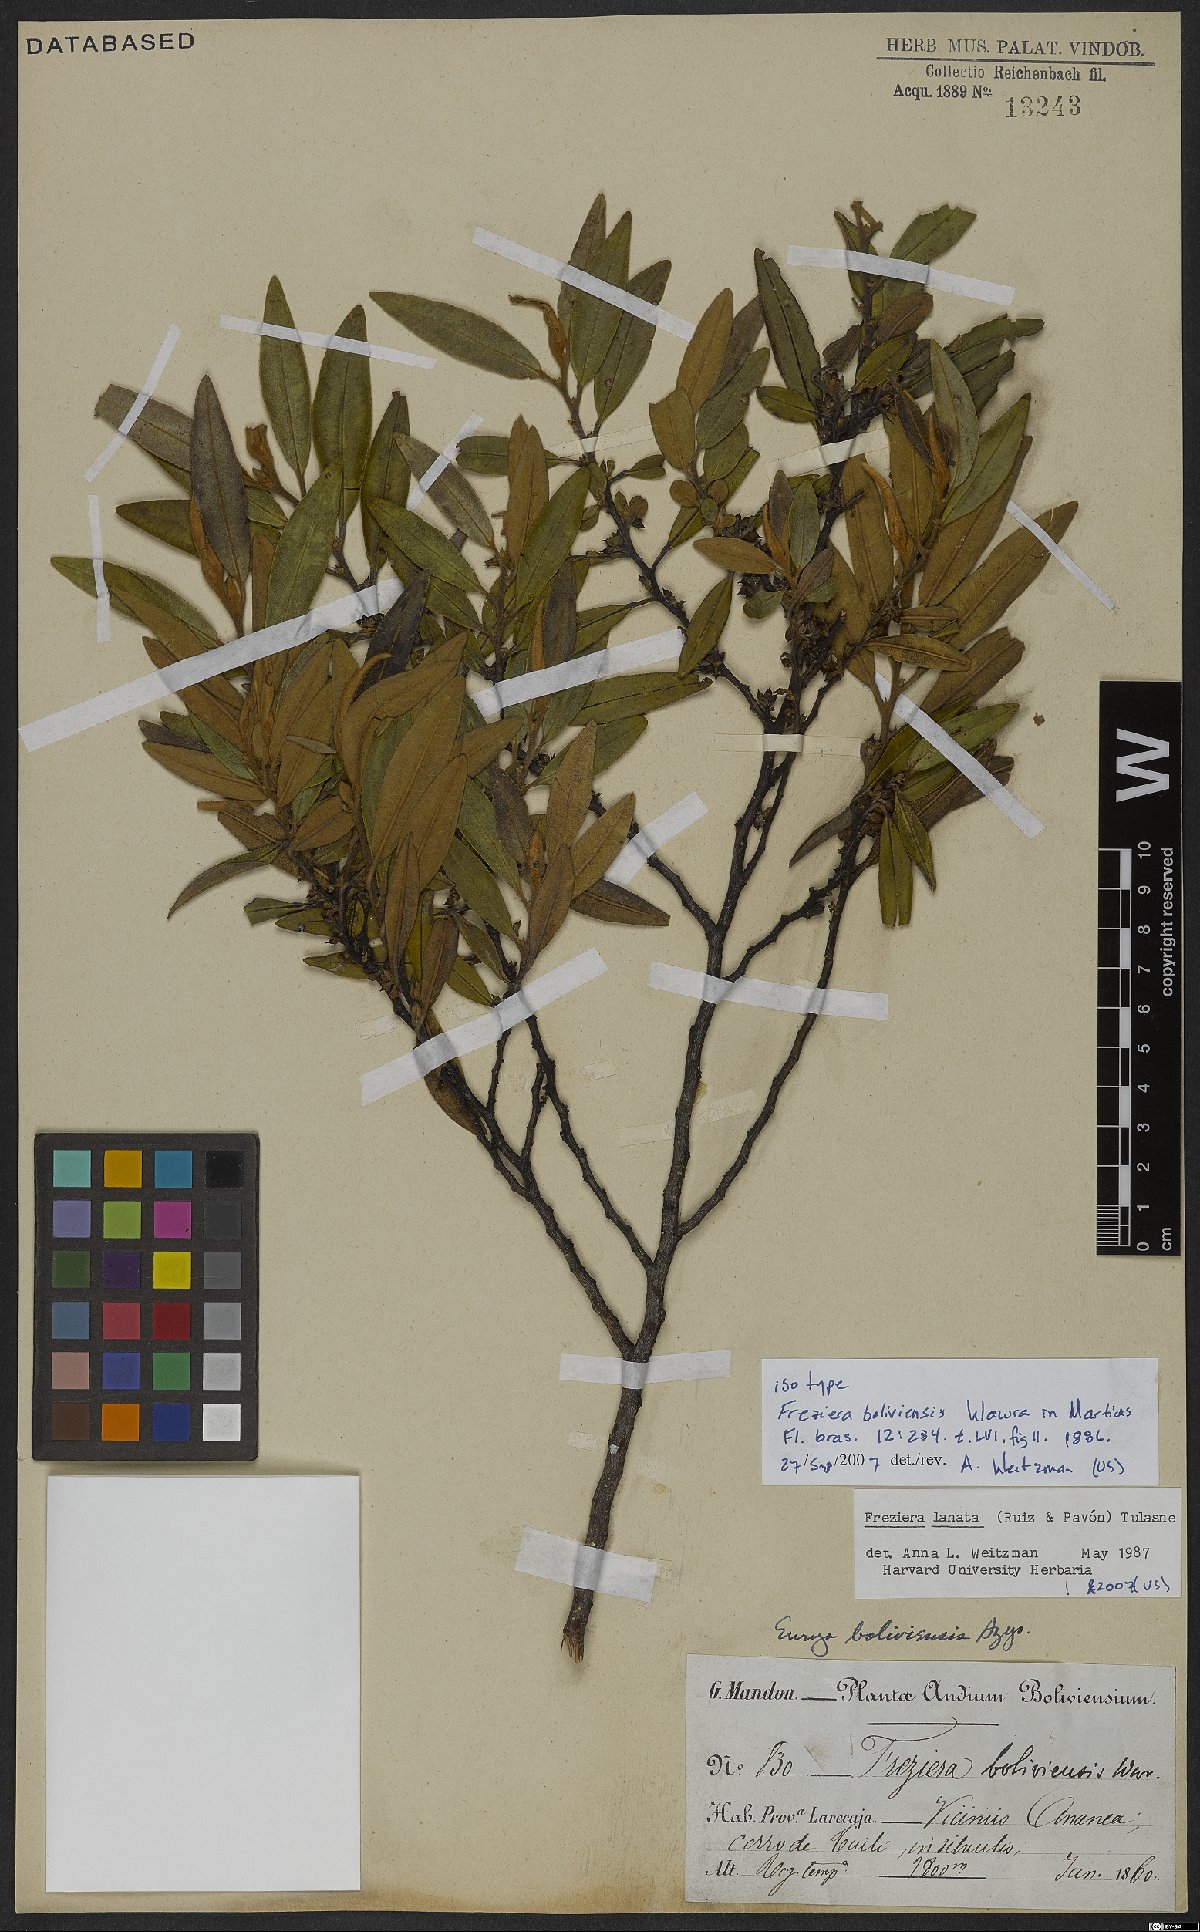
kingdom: Plantae
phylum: Tracheophyta
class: Magnoliopsida
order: Ericales
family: Pentaphylacaceae
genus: Freziera
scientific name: Freziera lanata
